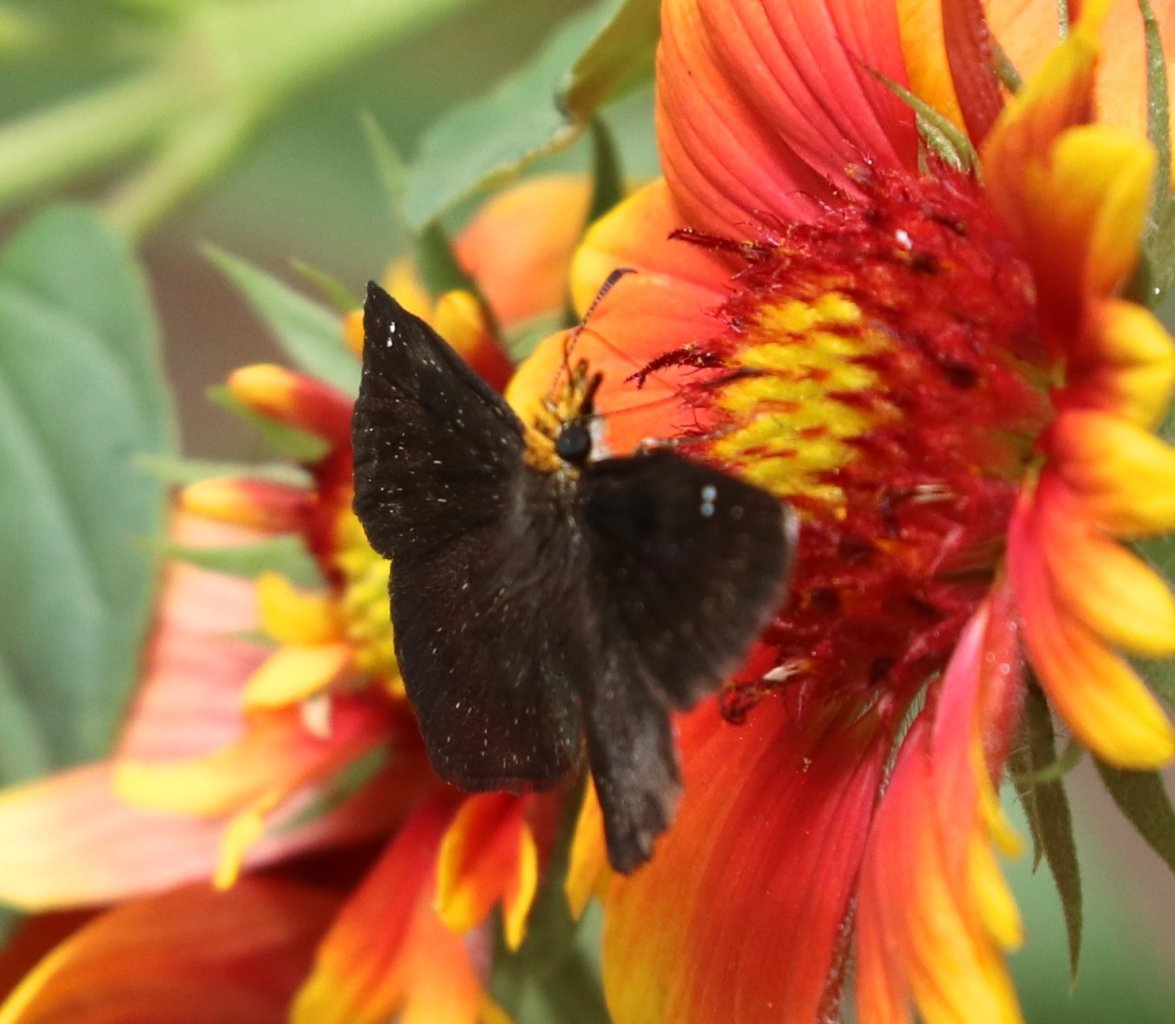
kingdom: Animalia
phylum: Arthropoda
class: Insecta
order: Lepidoptera
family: Hesperiidae
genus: Staphylus
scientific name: Staphylus ceos
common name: Golden-headed Scallopwing
